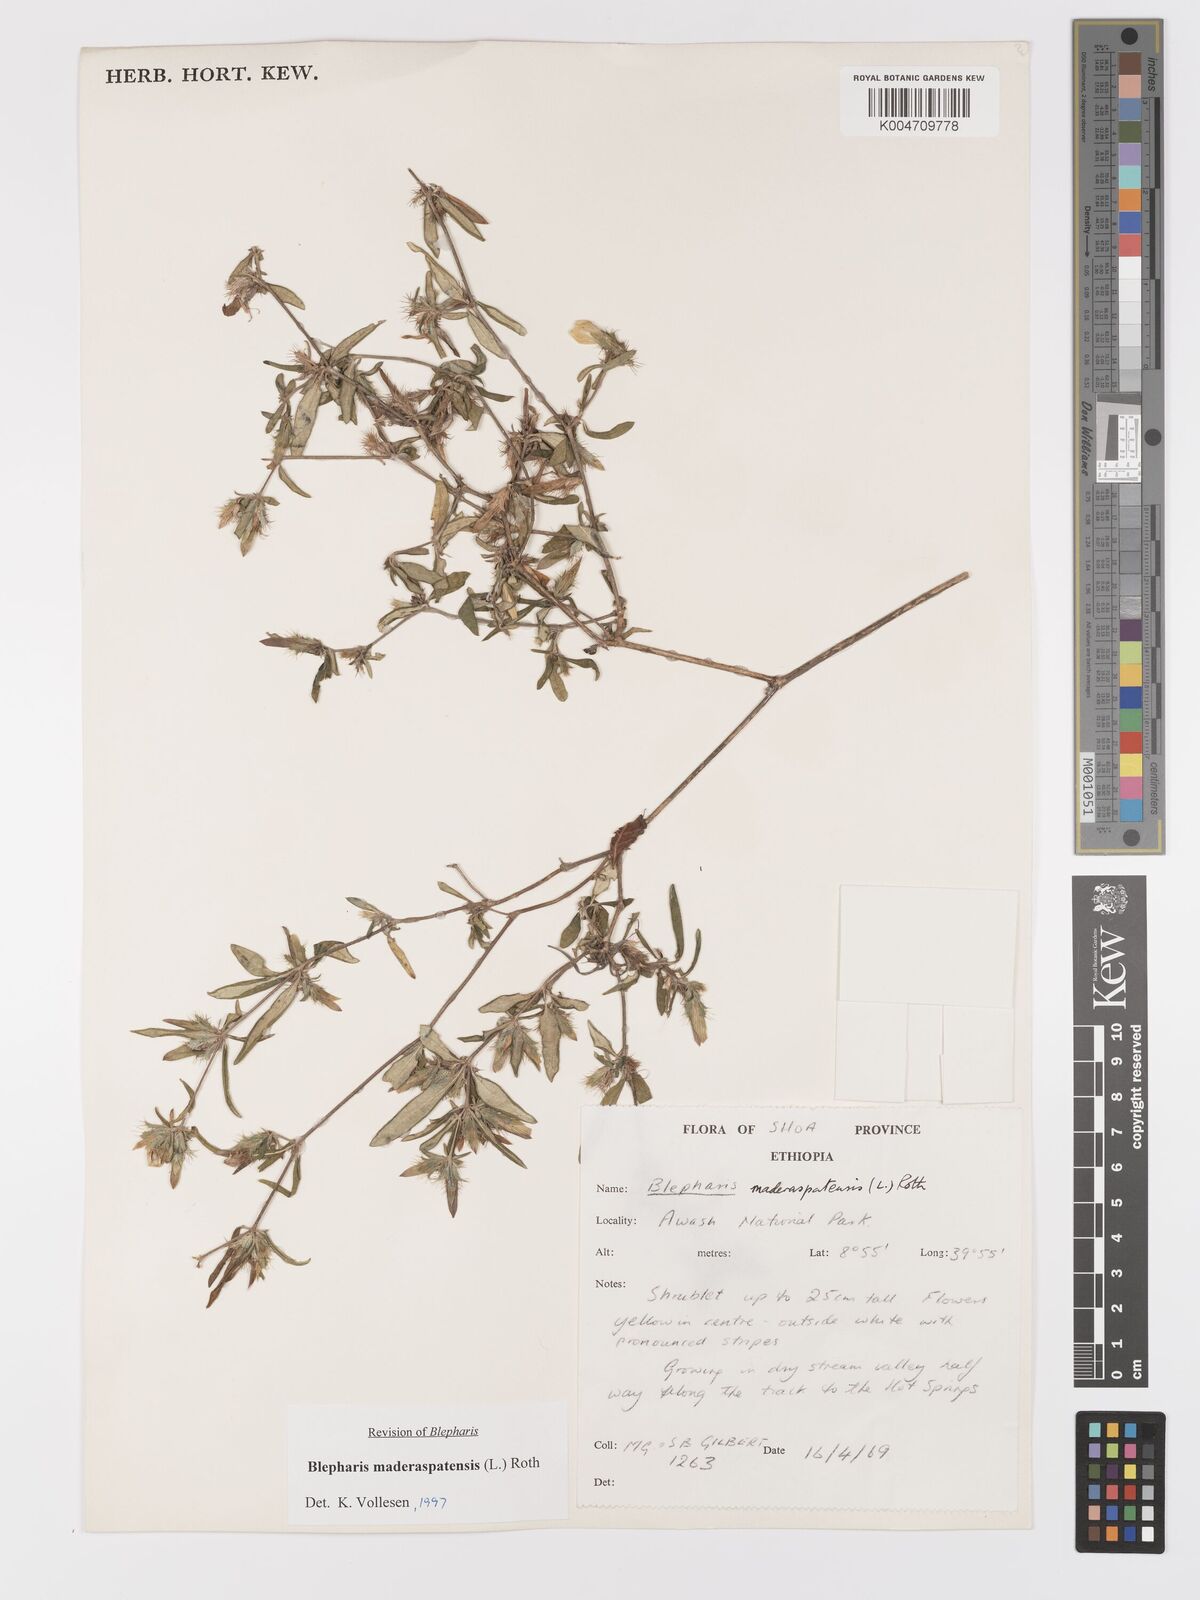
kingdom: Plantae
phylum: Tracheophyta
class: Magnoliopsida
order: Lamiales
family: Acanthaceae
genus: Blepharis
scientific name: Blepharis maderaspatensis
